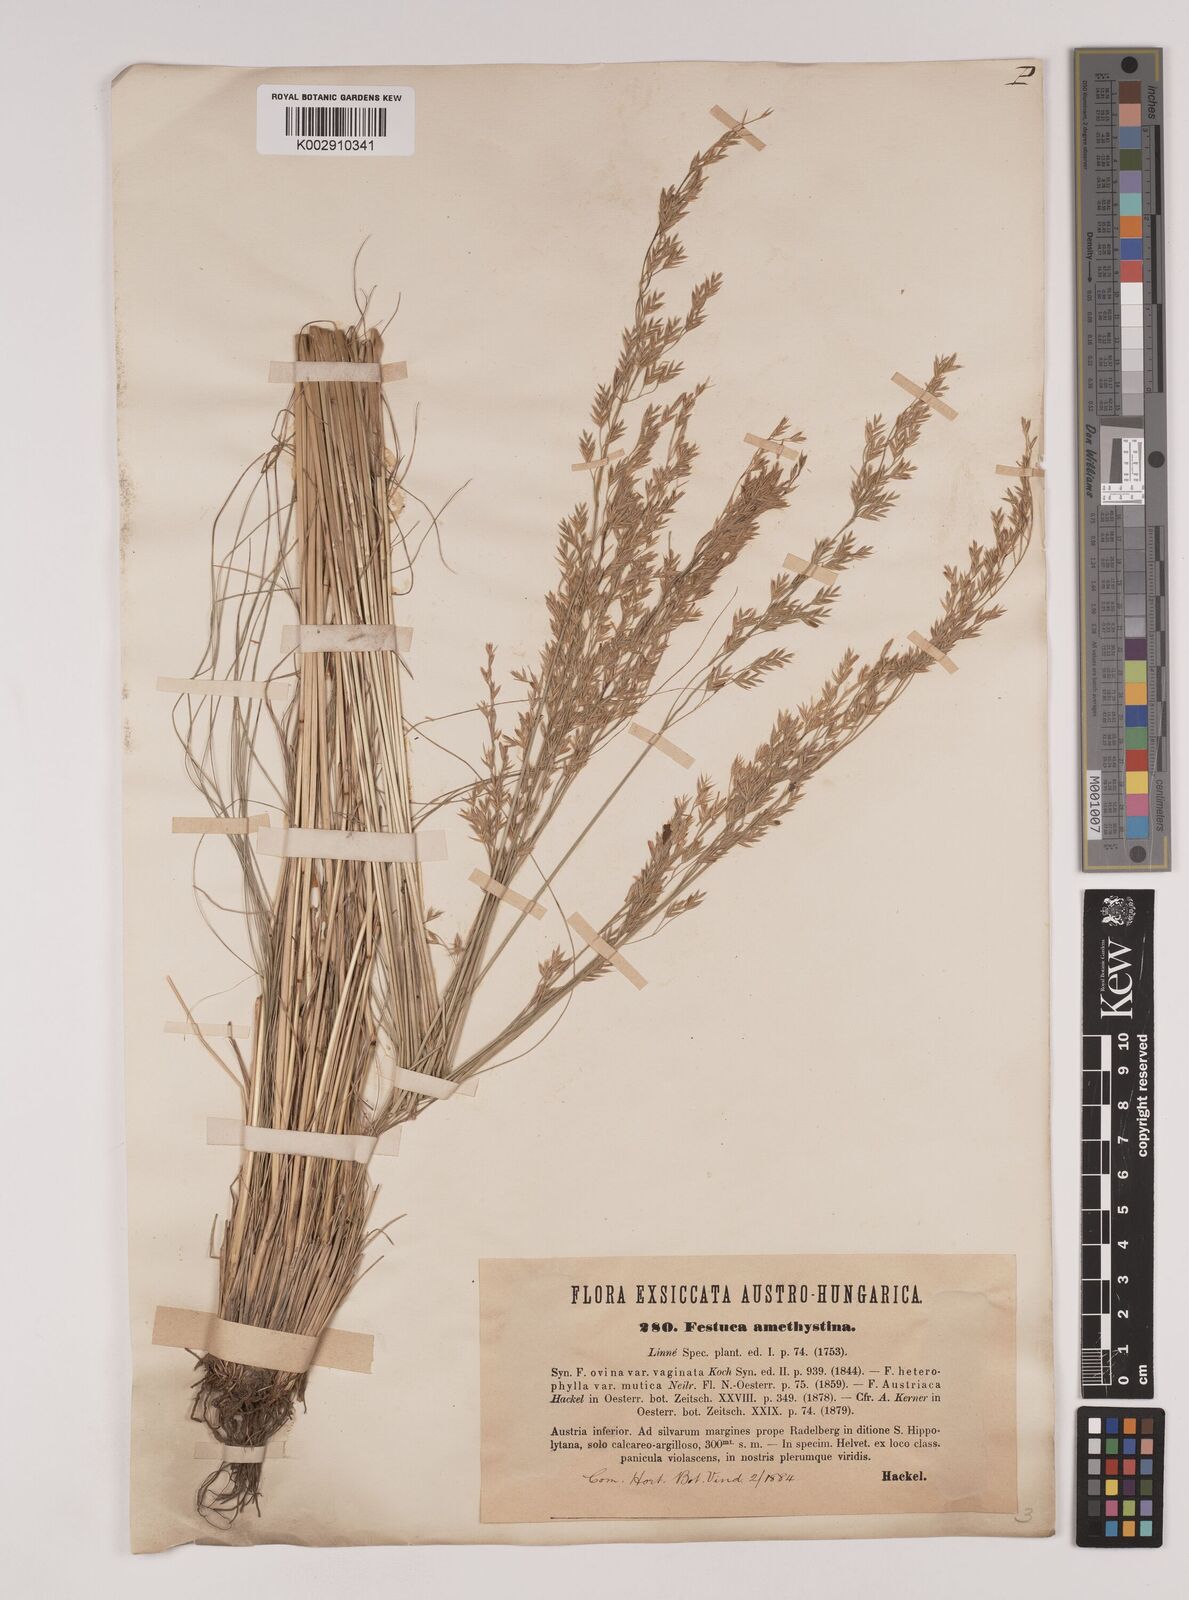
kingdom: Plantae
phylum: Tracheophyta
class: Liliopsida
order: Poales
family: Poaceae
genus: Festuca
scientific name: Festuca amethystina
